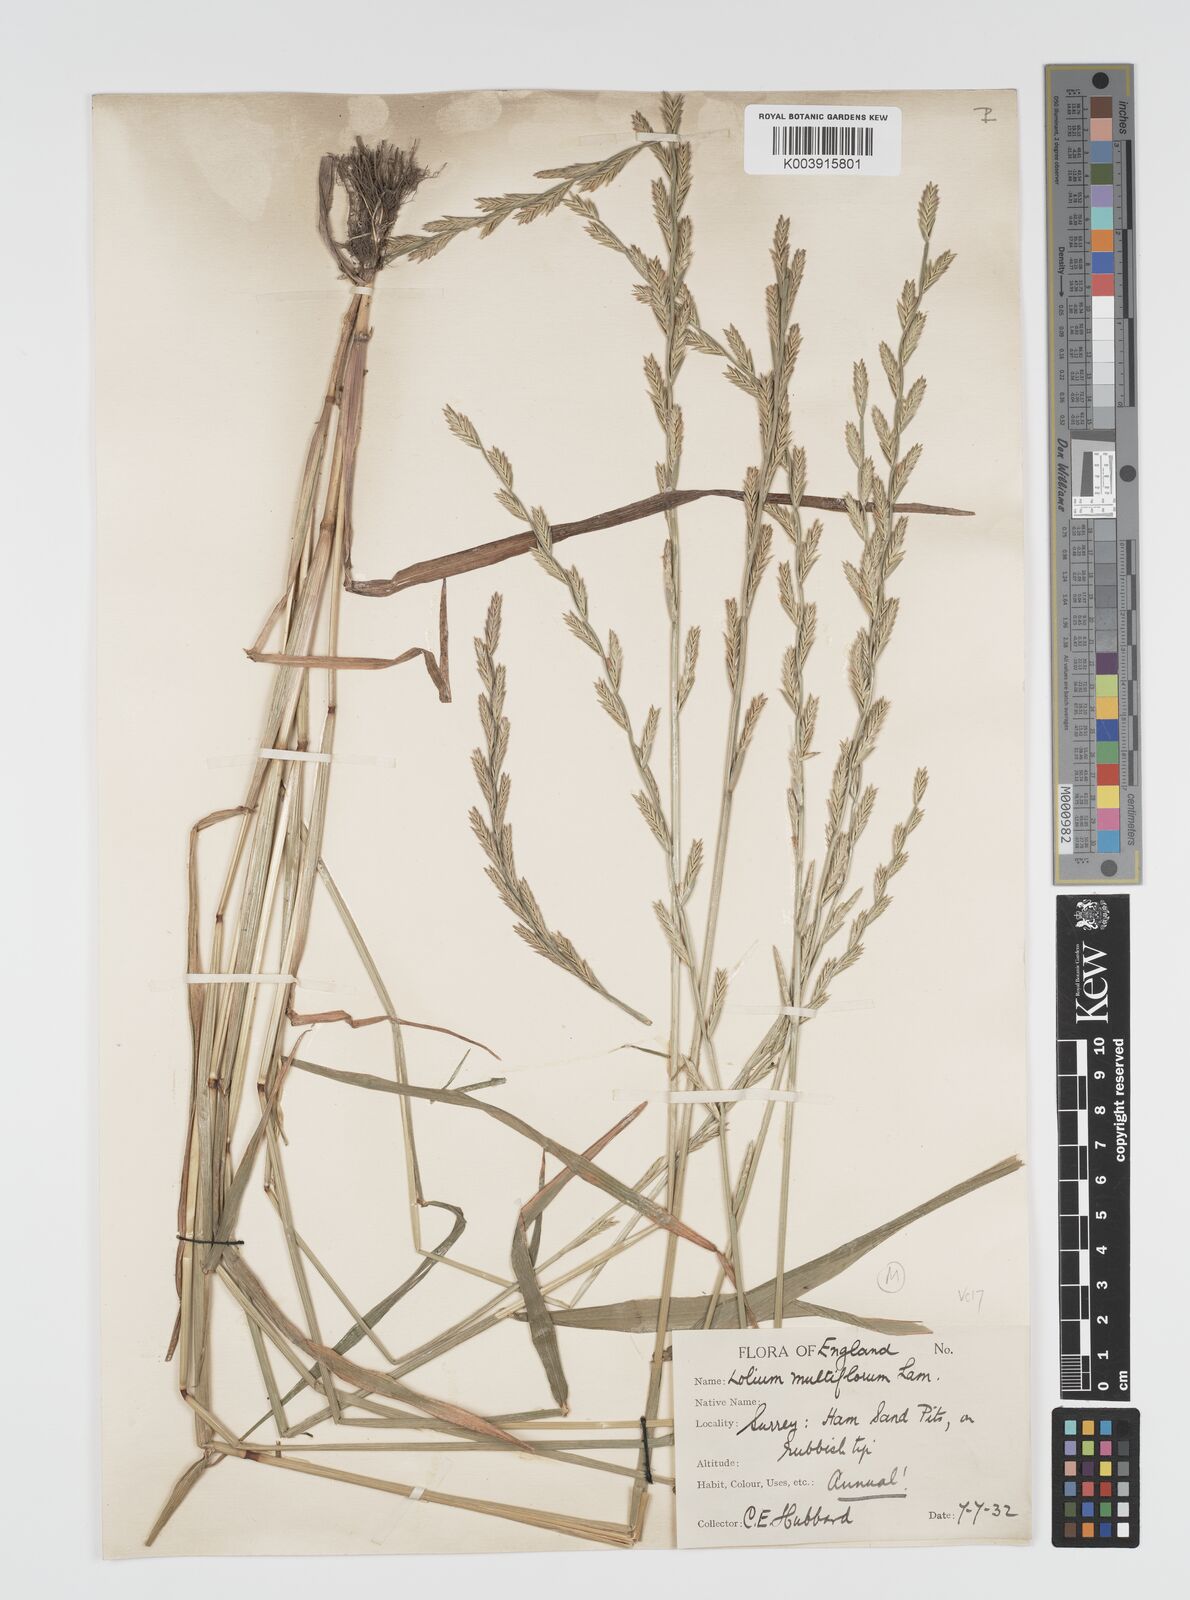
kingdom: Plantae
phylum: Tracheophyta
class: Liliopsida
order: Poales
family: Poaceae
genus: Lolium
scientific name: Lolium multiflorum
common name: Annual ryegrass
